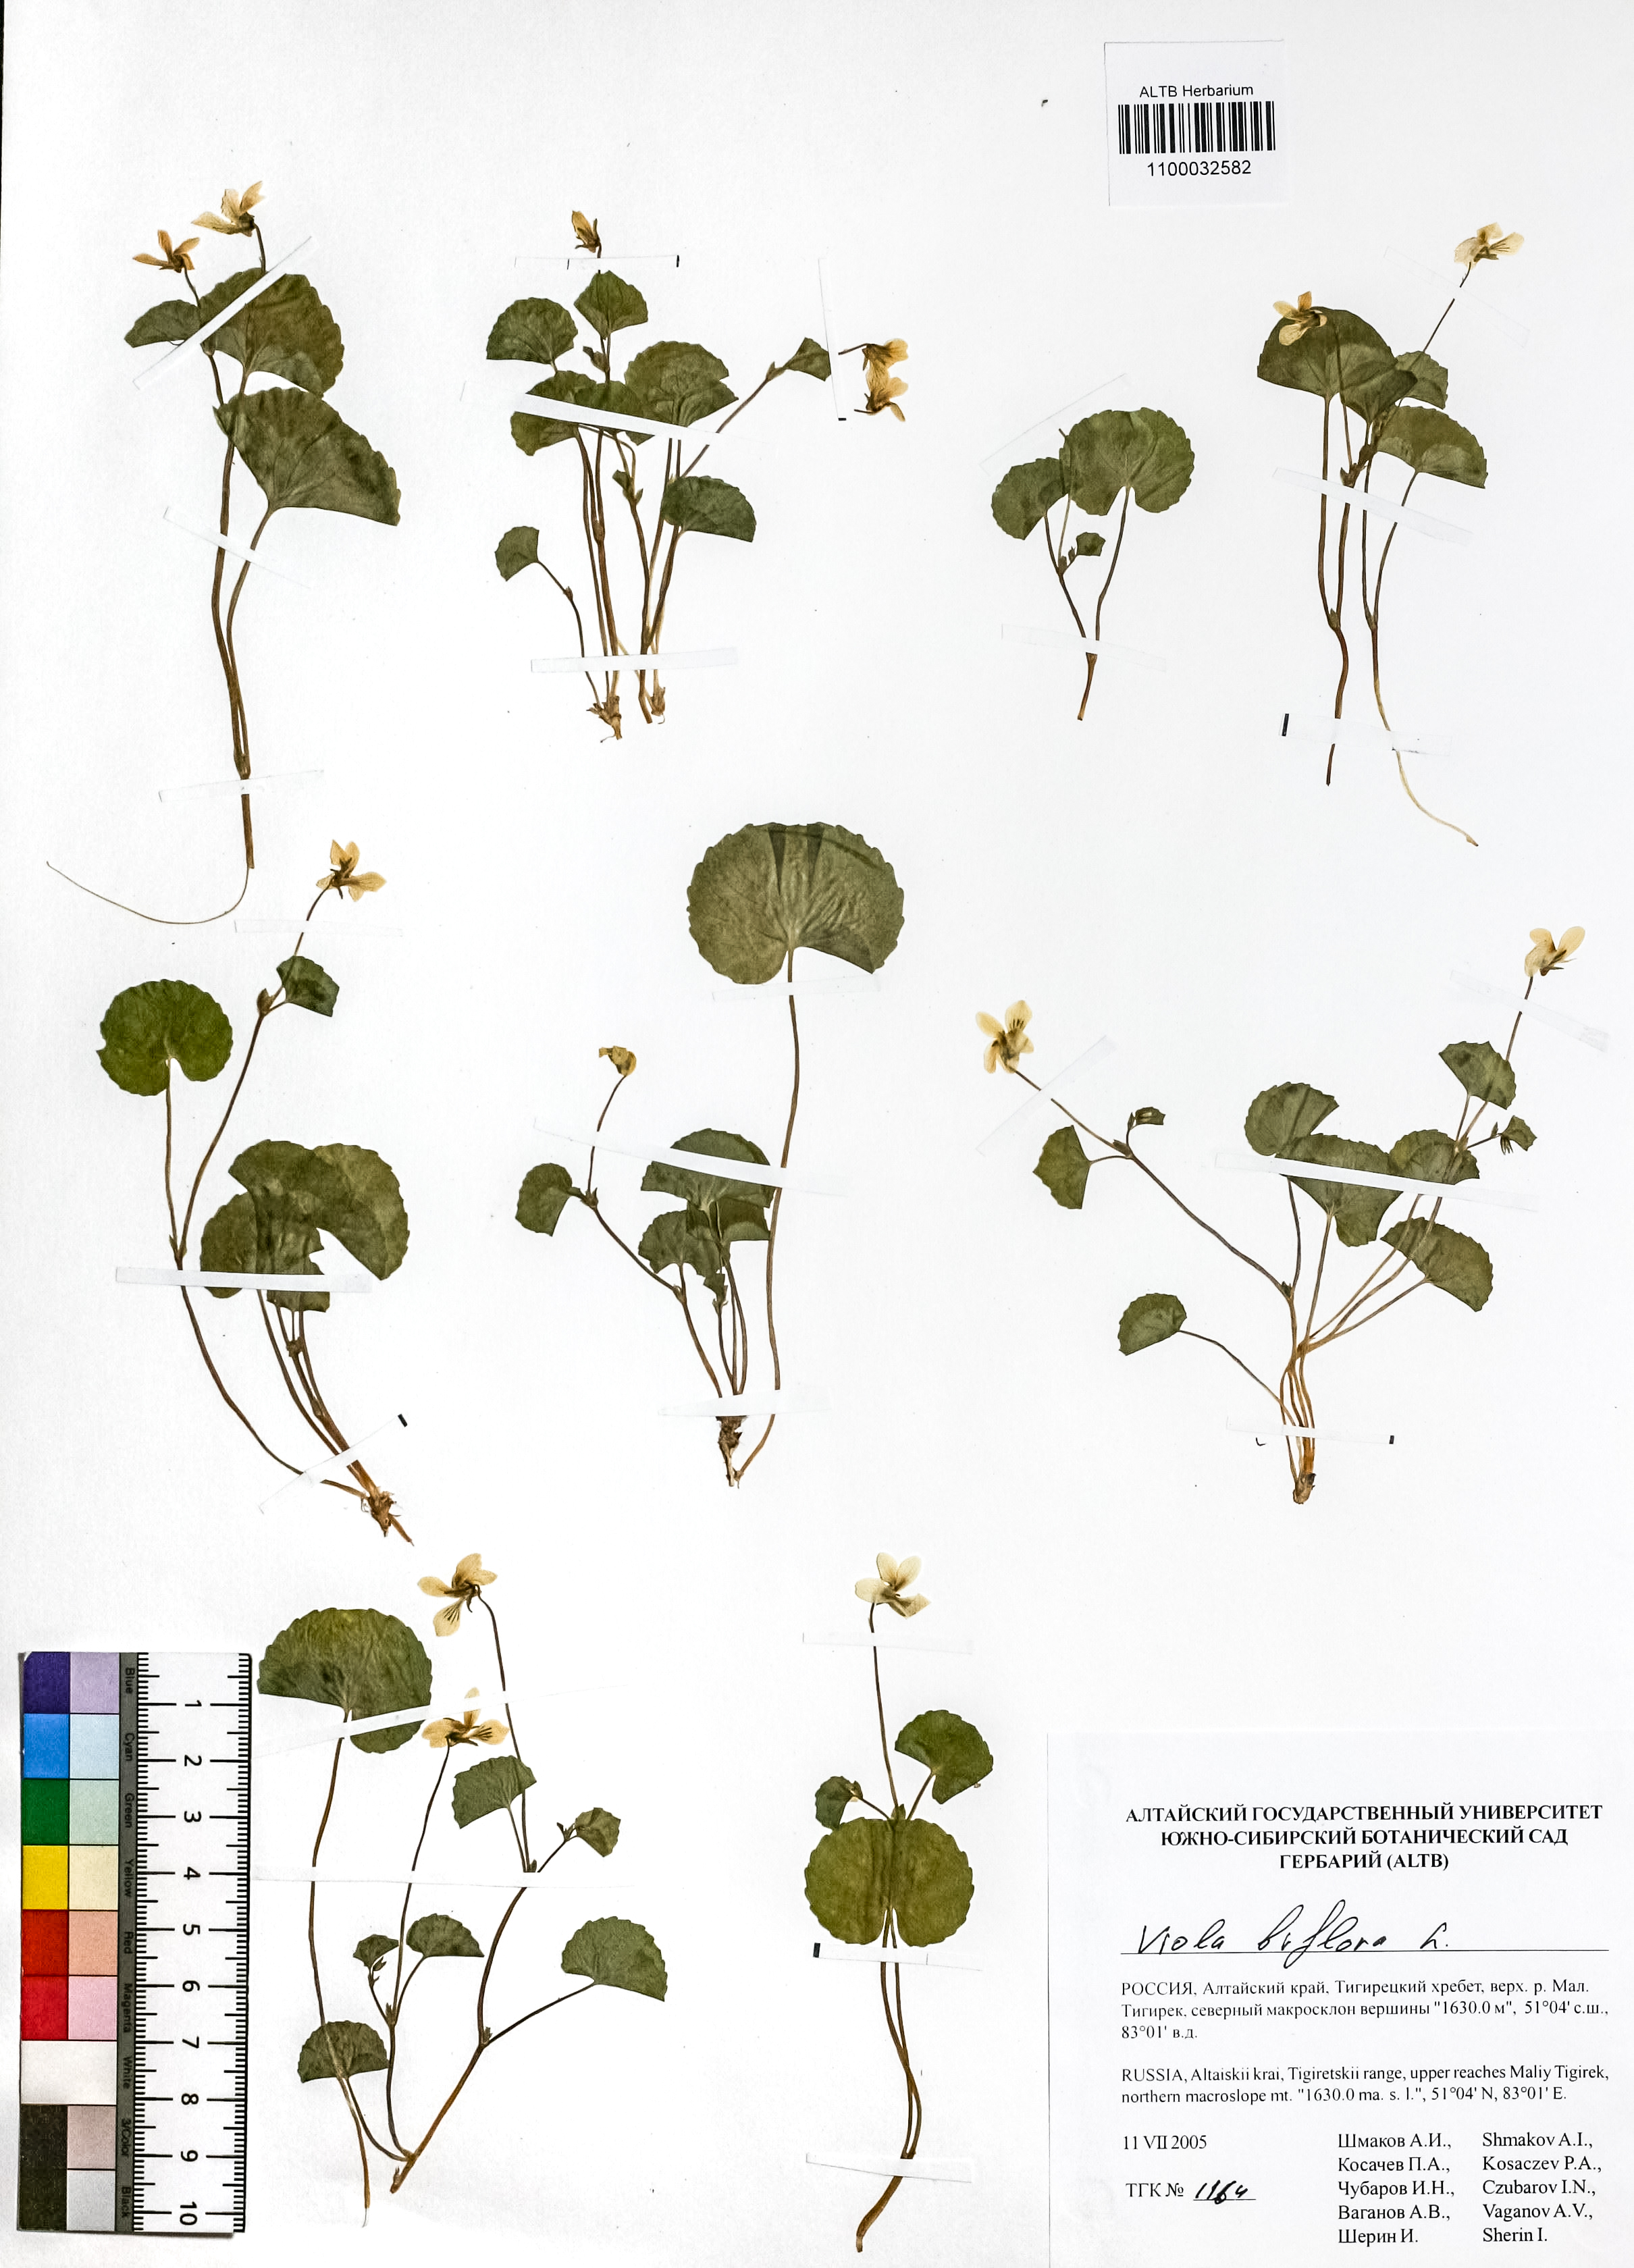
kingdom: Plantae
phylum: Tracheophyta
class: Magnoliopsida
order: Malpighiales
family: Violaceae
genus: Viola
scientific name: Viola biflora
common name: Alpine yellow violet
